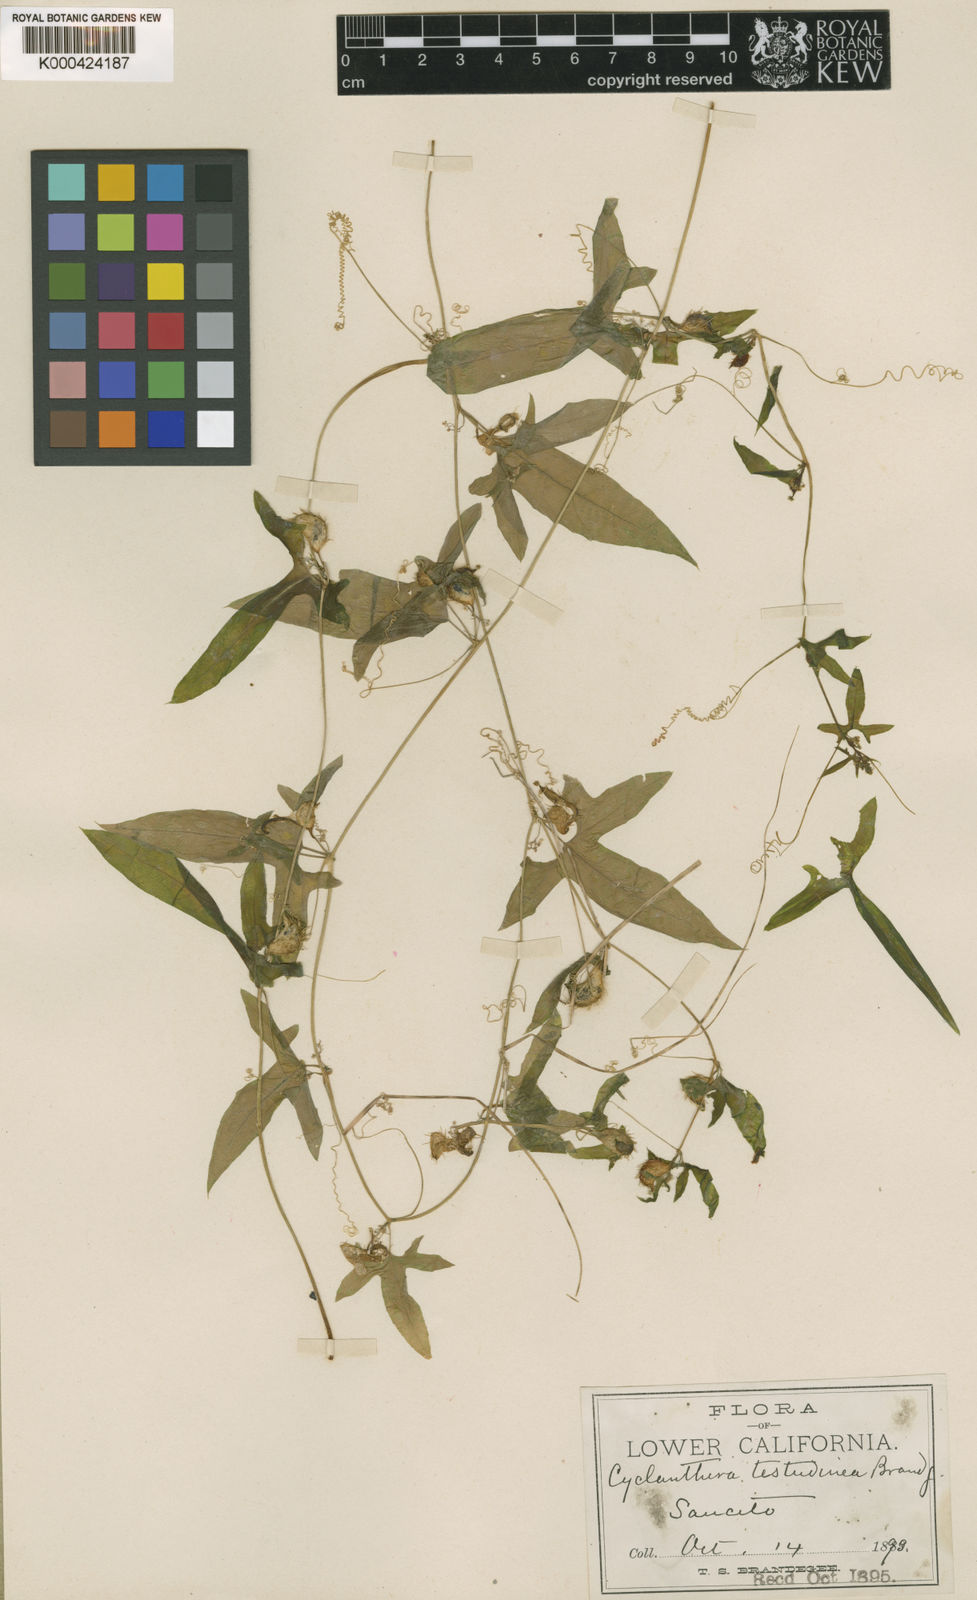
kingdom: Plantae
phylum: Tracheophyta
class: Magnoliopsida
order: Cucurbitales
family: Cucurbitaceae
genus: Cyclanthera
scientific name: Cyclanthera hastata
